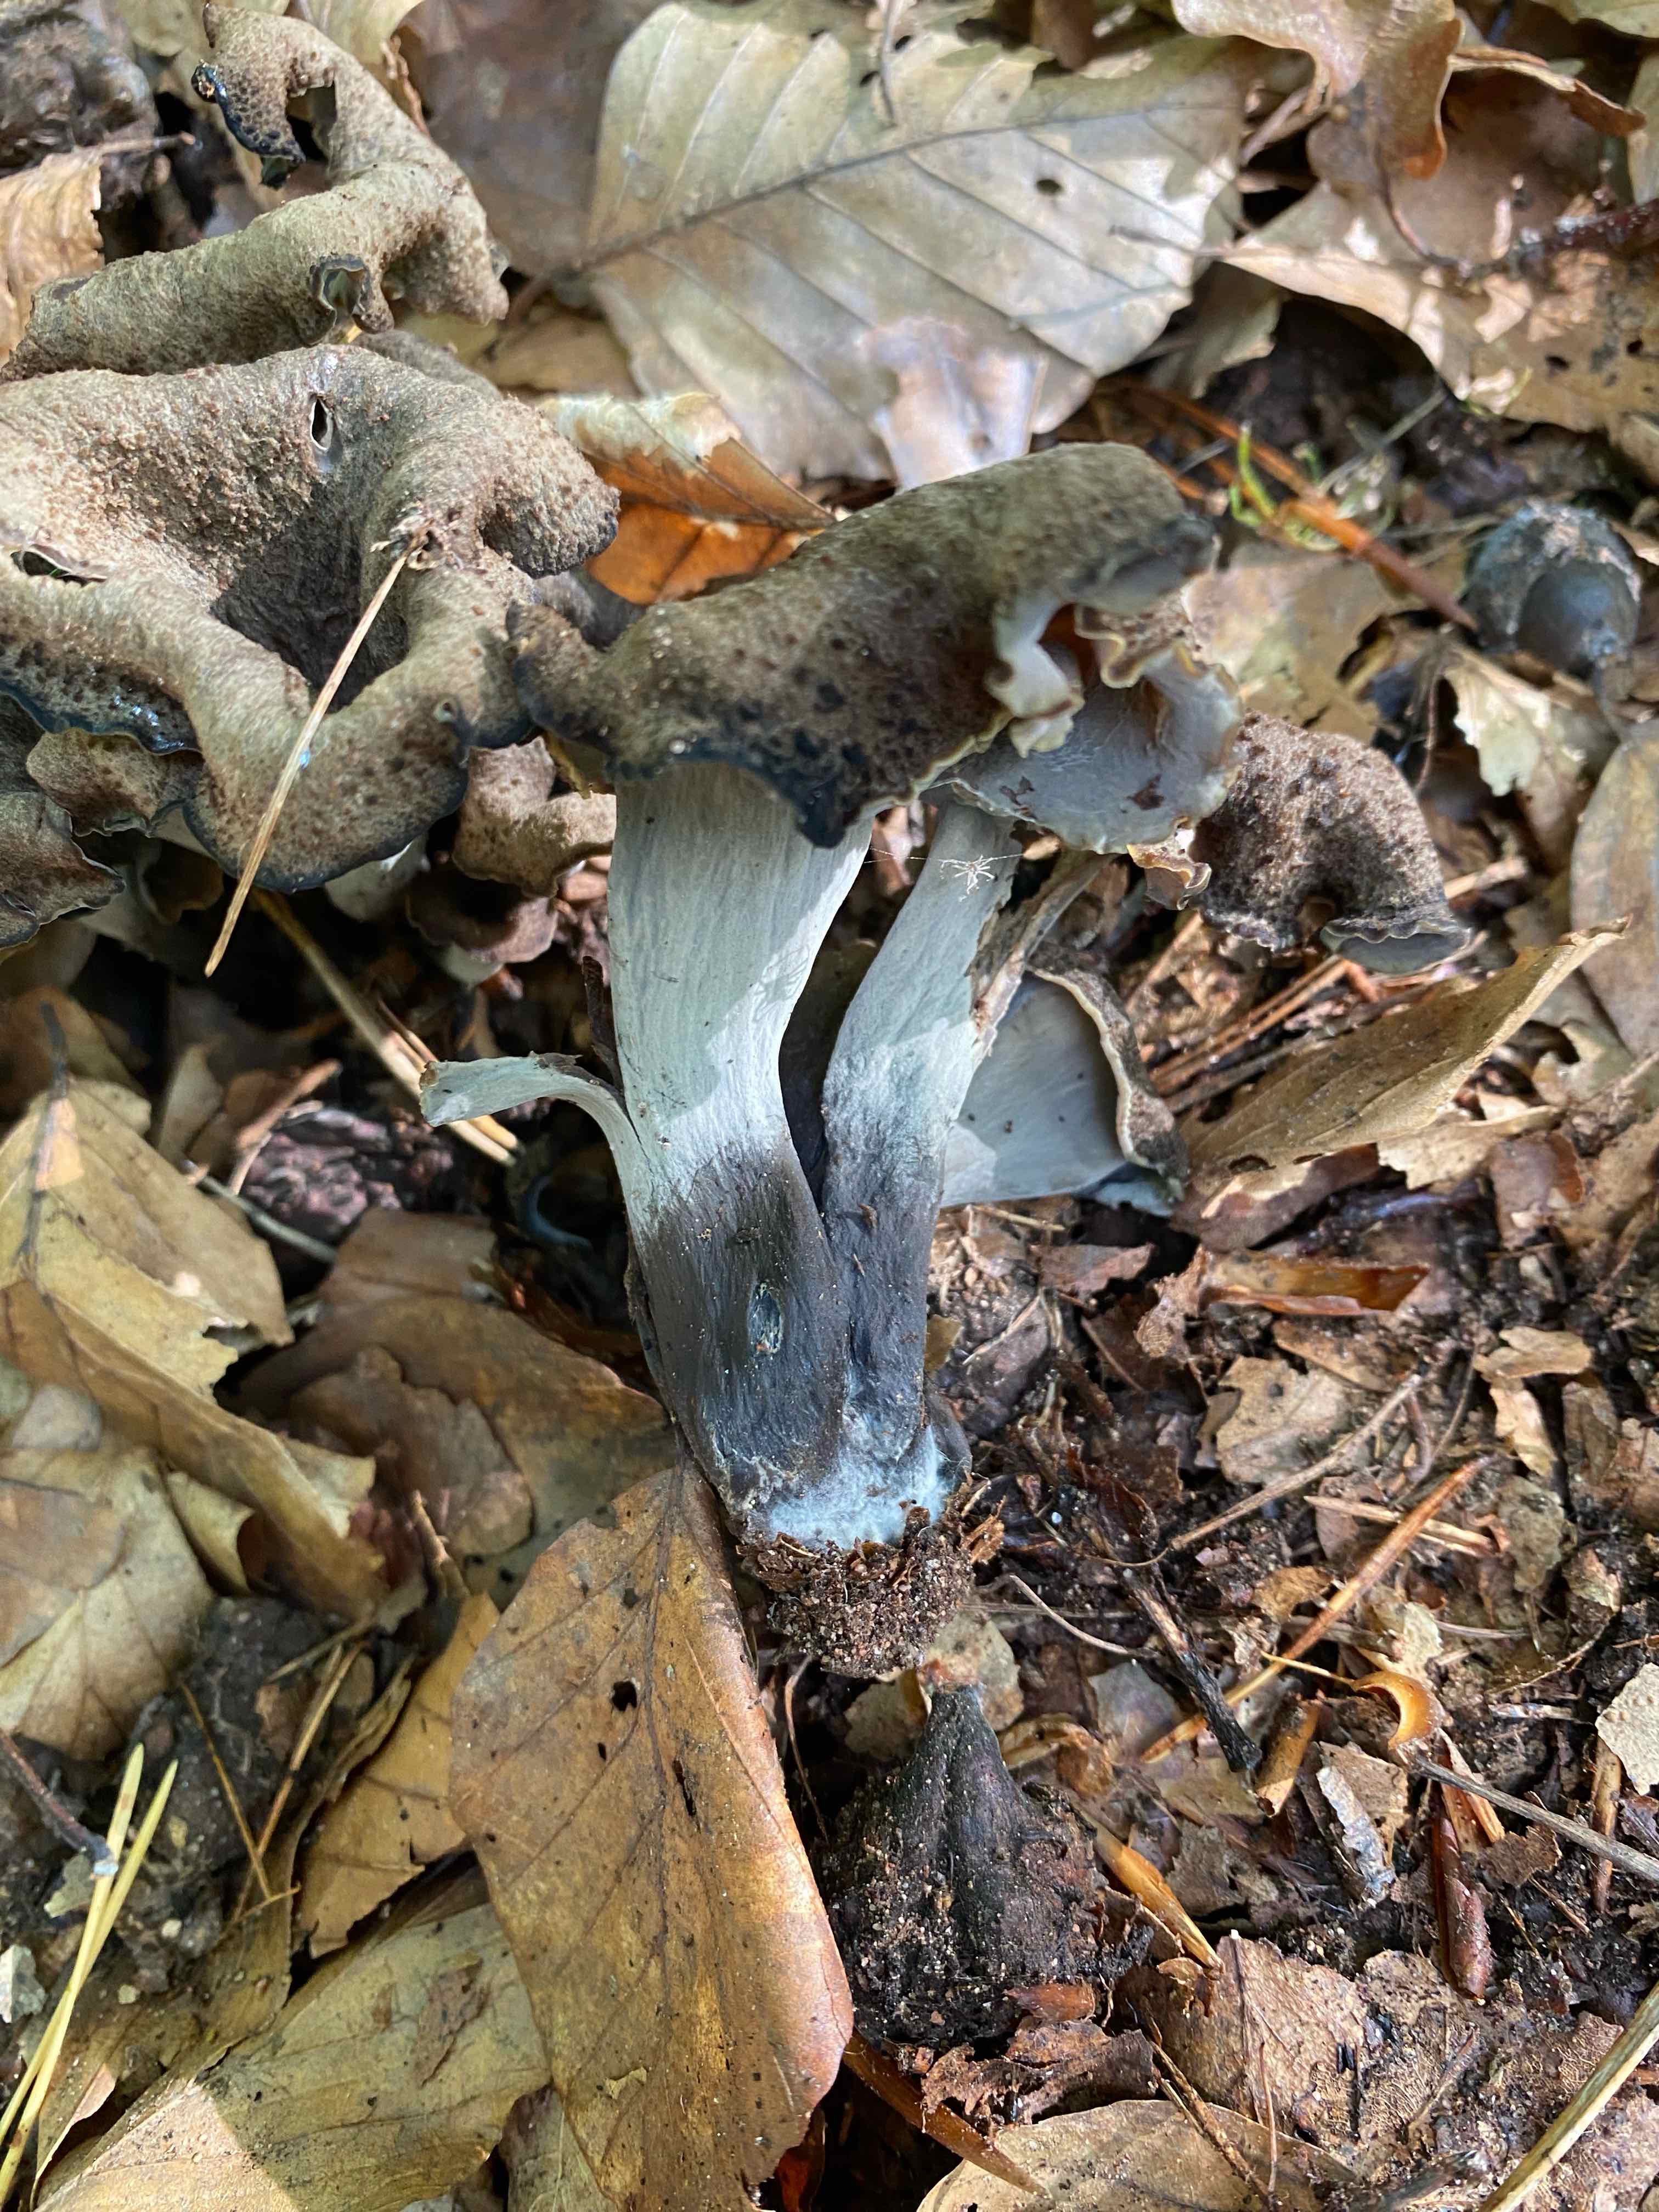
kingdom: Fungi
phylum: Basidiomycota
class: Agaricomycetes
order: Cantharellales
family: Hydnaceae
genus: Craterellus
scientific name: Craterellus cornucopioides
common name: trompetsvamp
